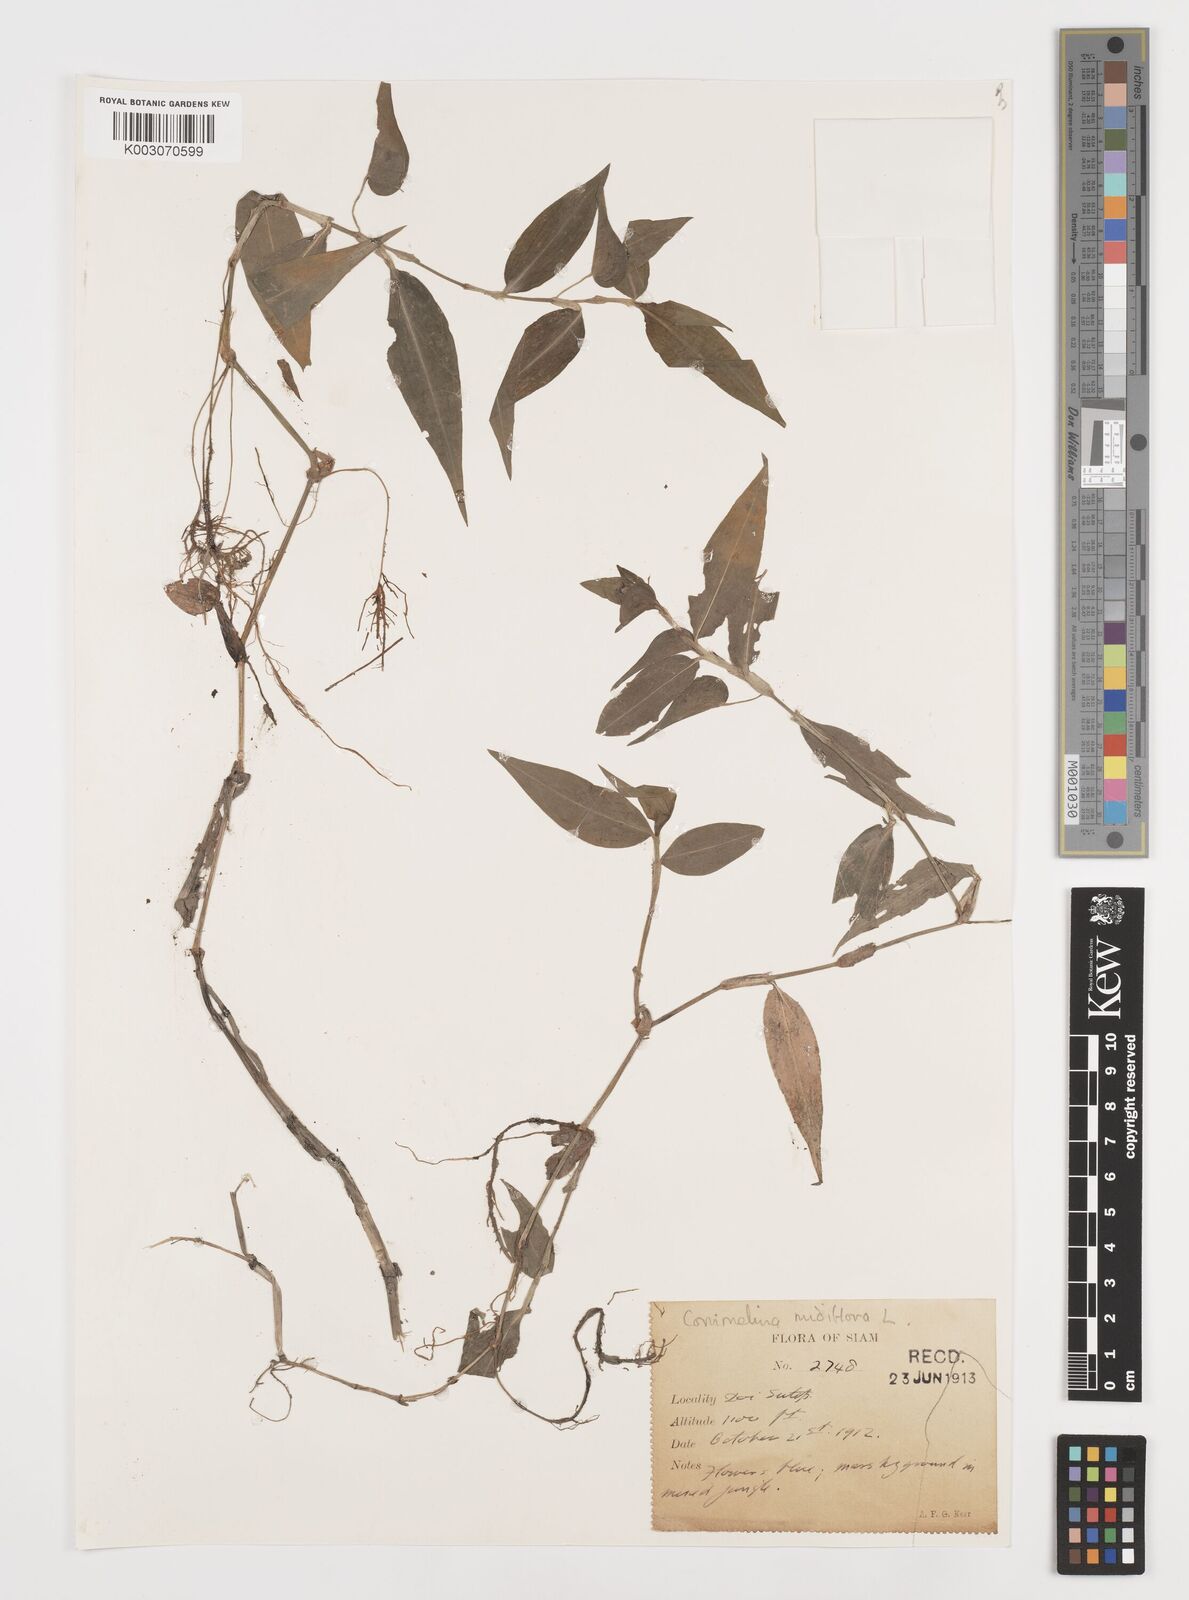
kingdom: Plantae
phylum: Tracheophyta
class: Liliopsida
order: Commelinales
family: Commelinaceae
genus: Commelina
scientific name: Commelina clavata
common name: Willow leaved dayflower
